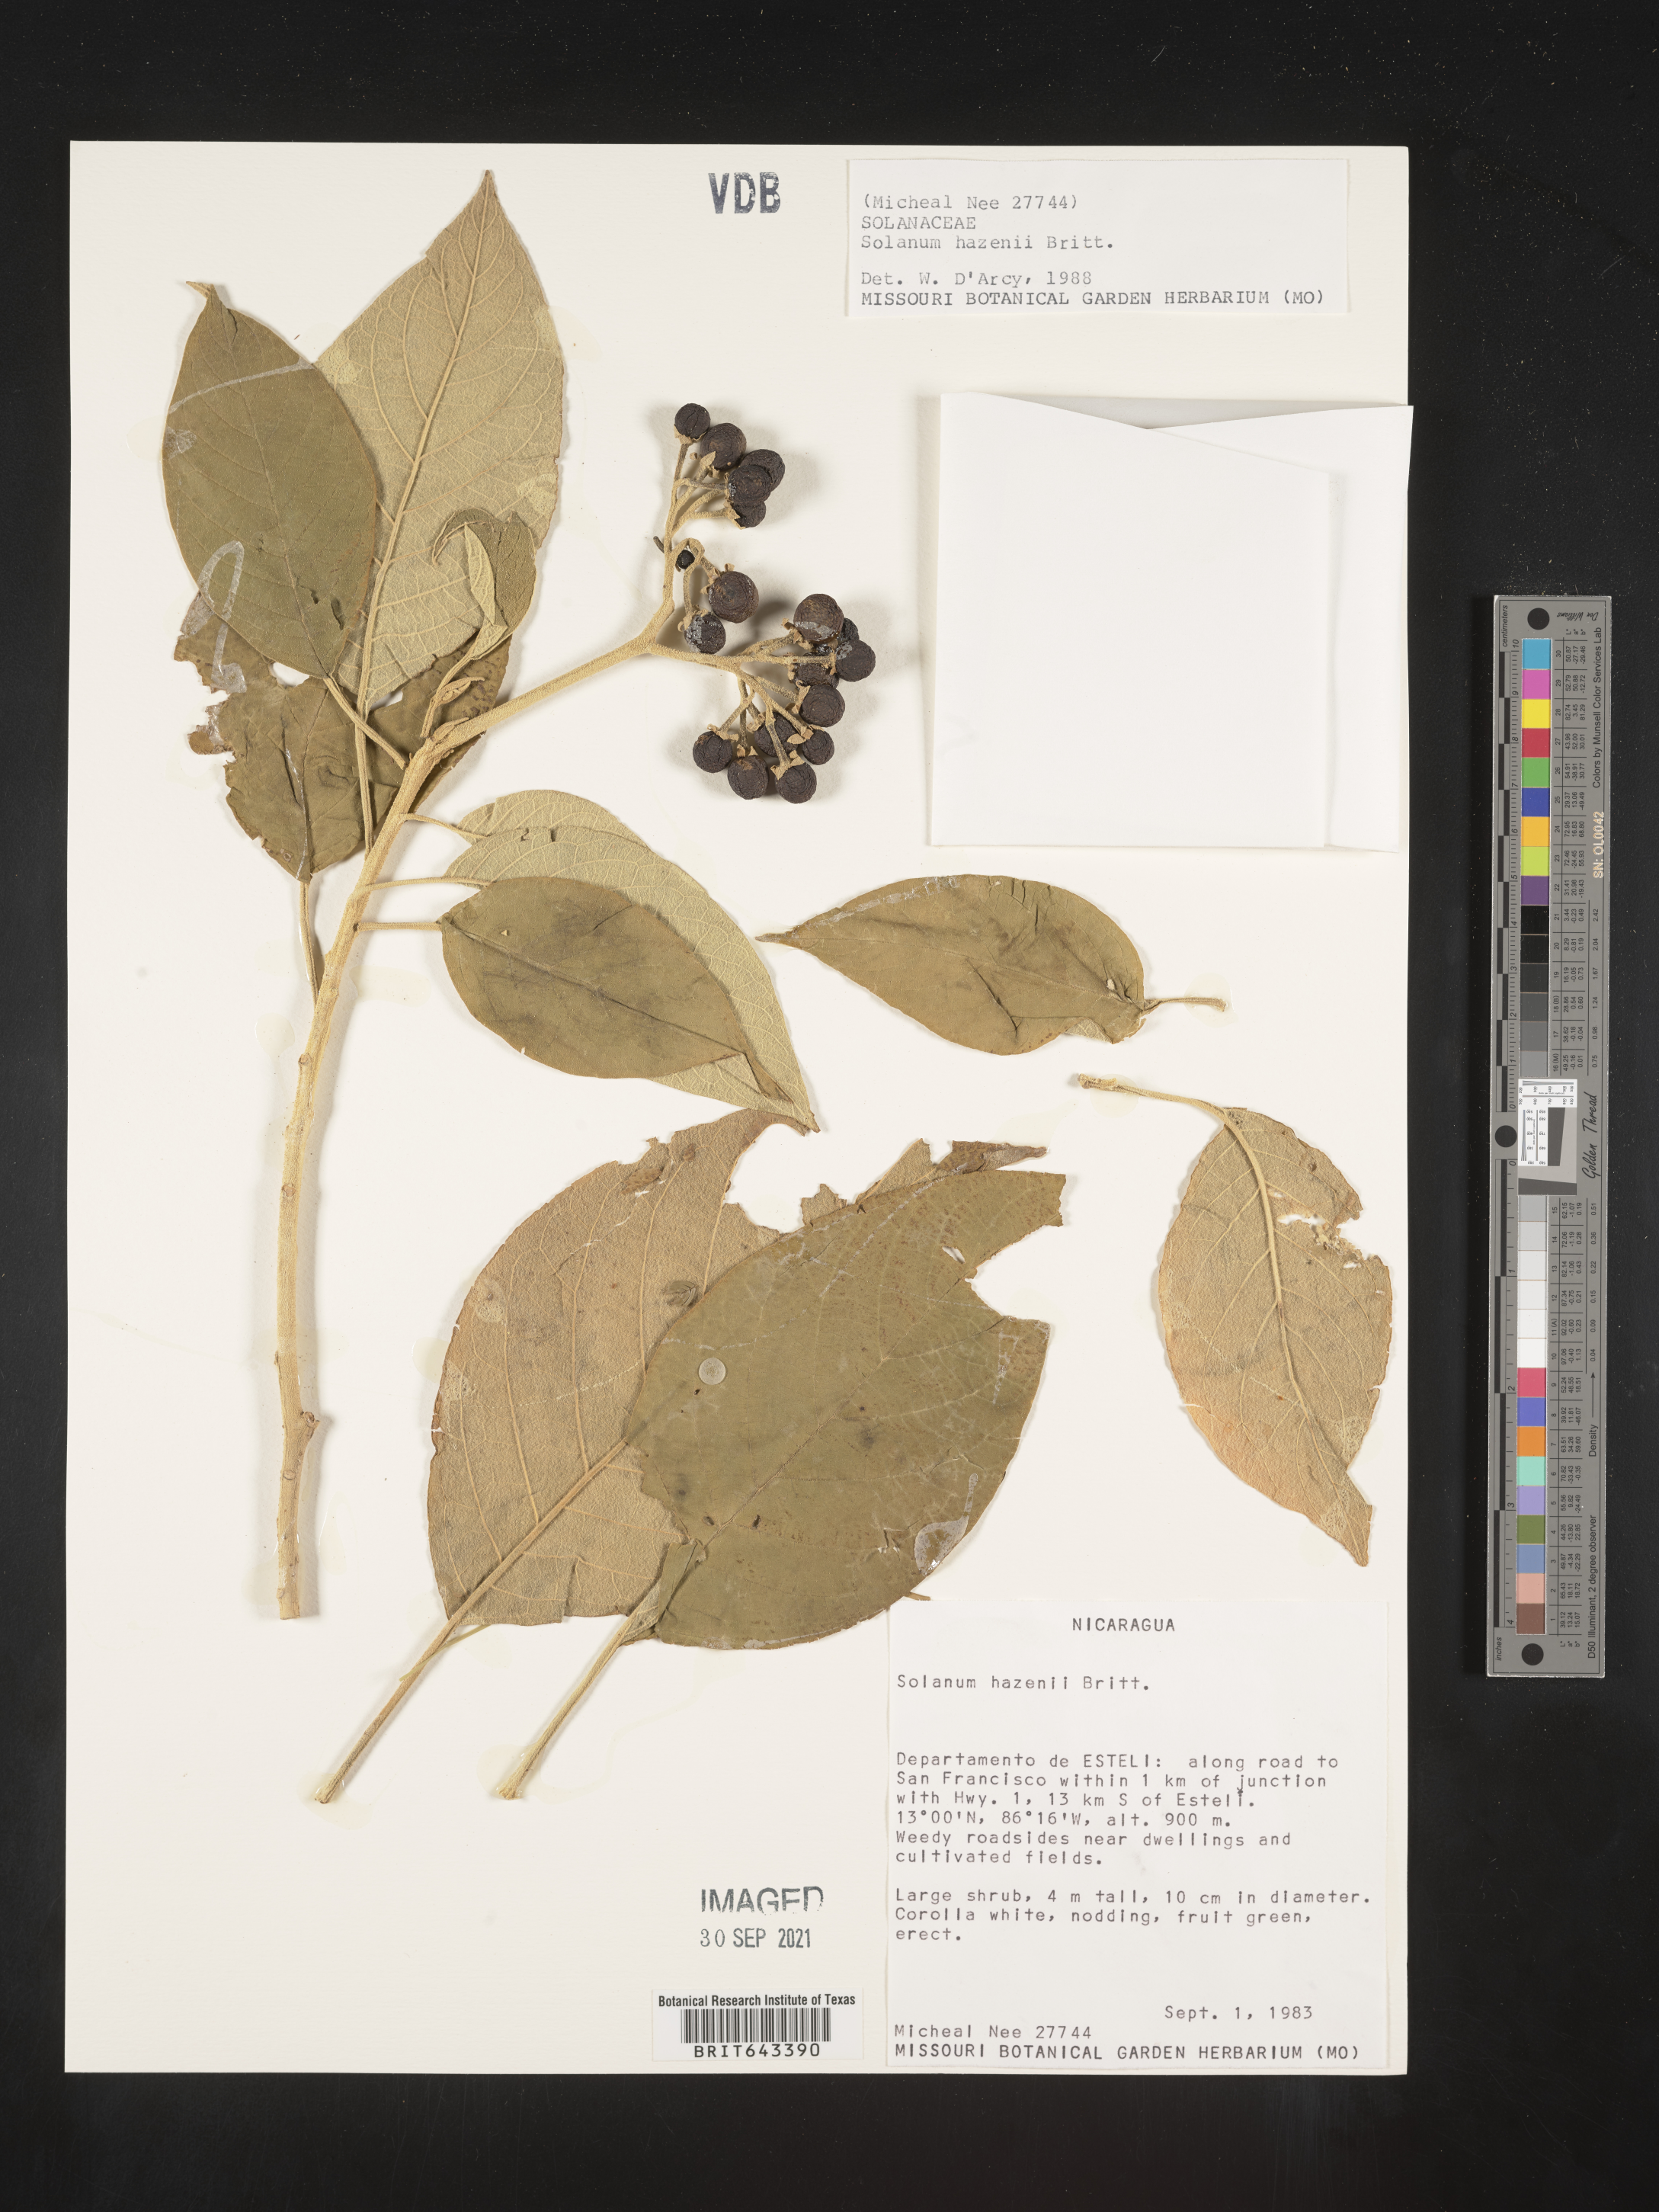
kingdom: Plantae
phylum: Tracheophyta
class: Magnoliopsida
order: Solanales
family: Solanaceae
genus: Solanum
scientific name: Solanum
